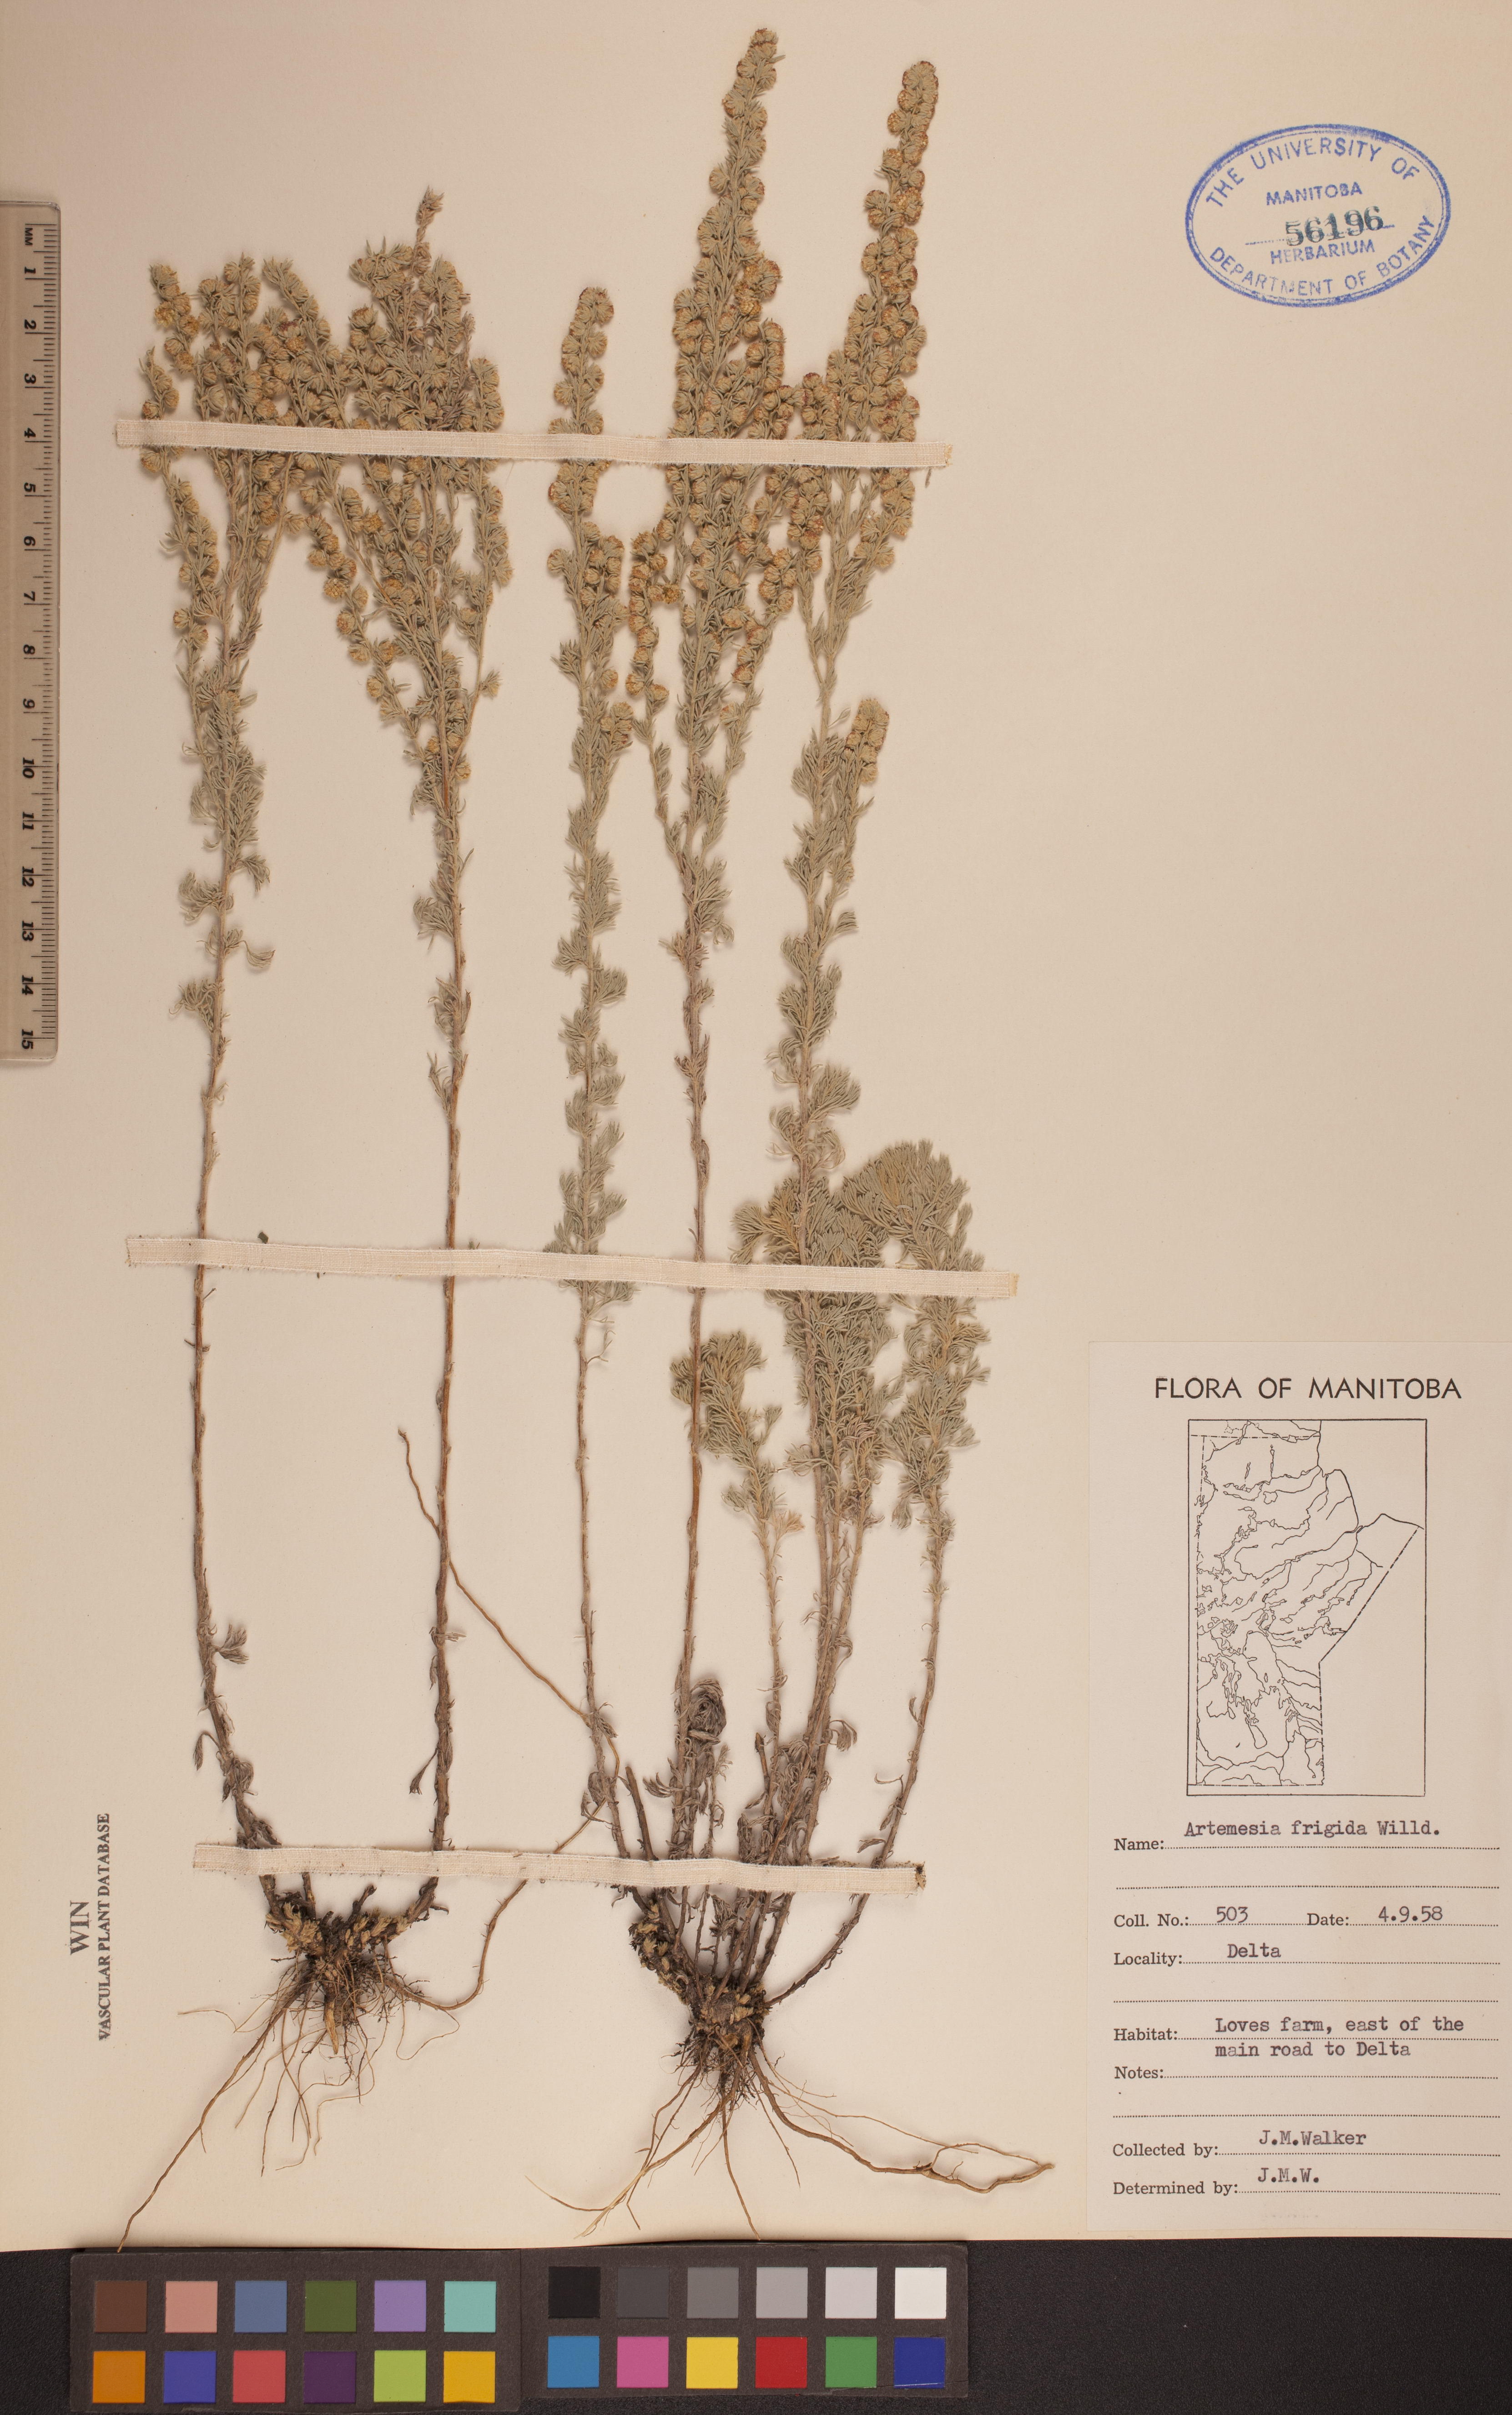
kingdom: Plantae
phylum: Tracheophyta
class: Magnoliopsida
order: Asterales
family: Asteraceae
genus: Artemisia
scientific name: Artemisia frigida
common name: Prairie sagewort
